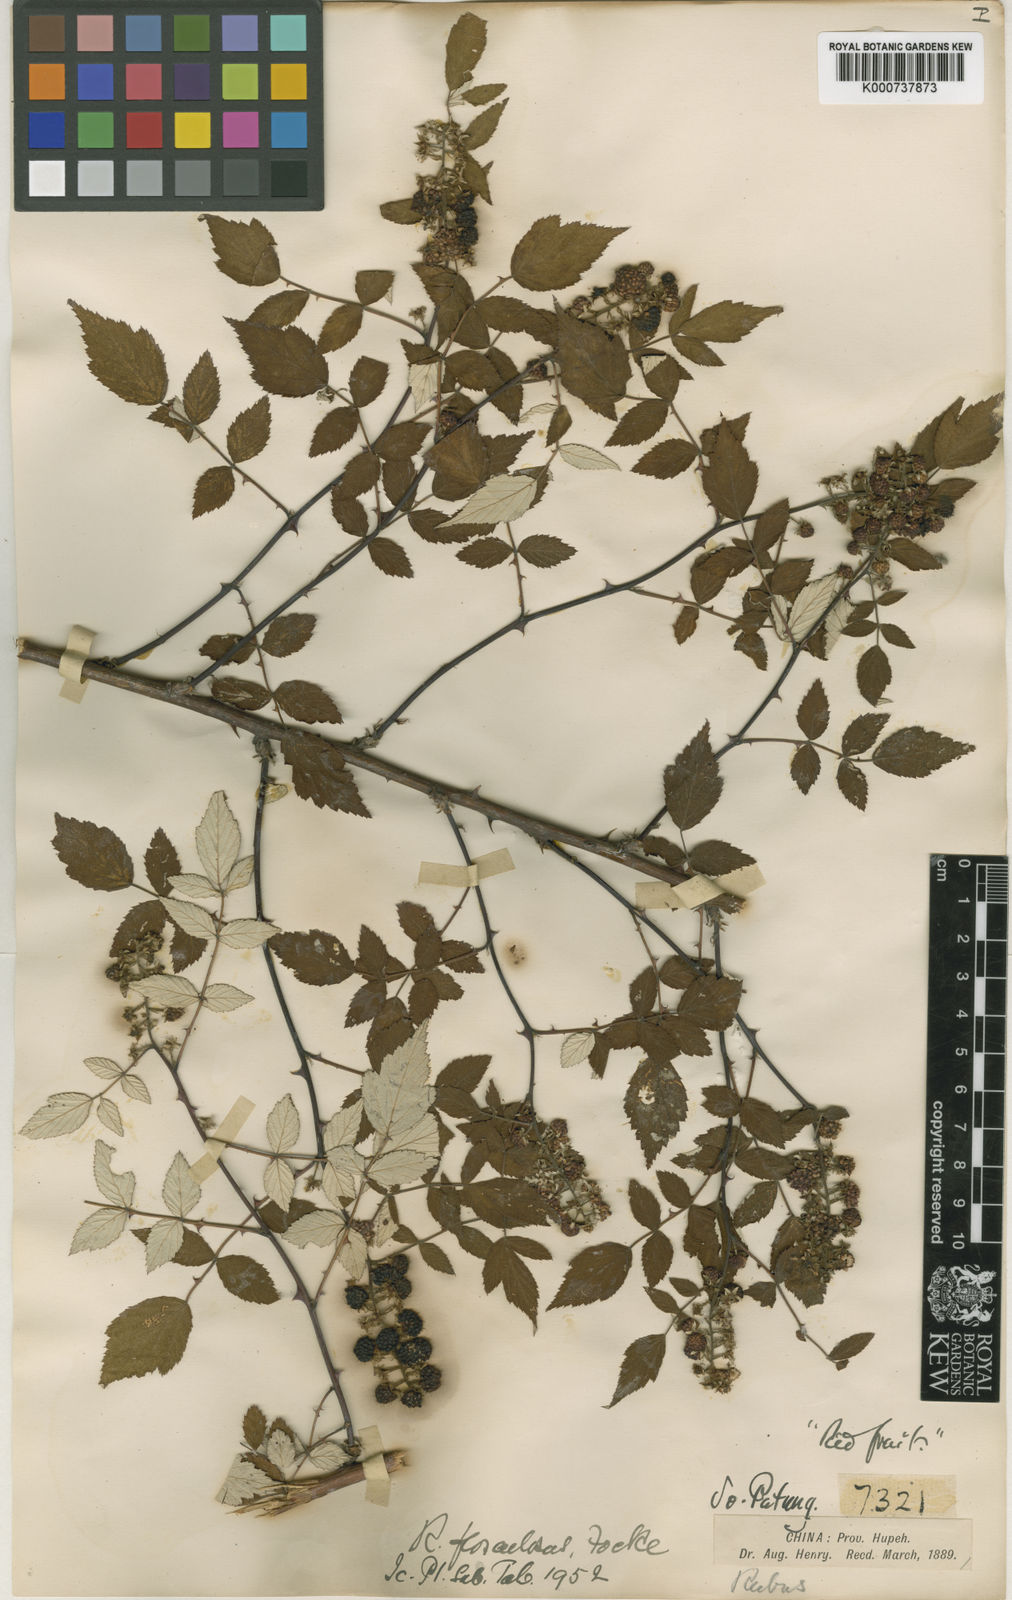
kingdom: Plantae
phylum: Tracheophyta
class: Magnoliopsida
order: Rosales
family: Rosaceae
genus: Rubus
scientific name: Rubus flosculosus
